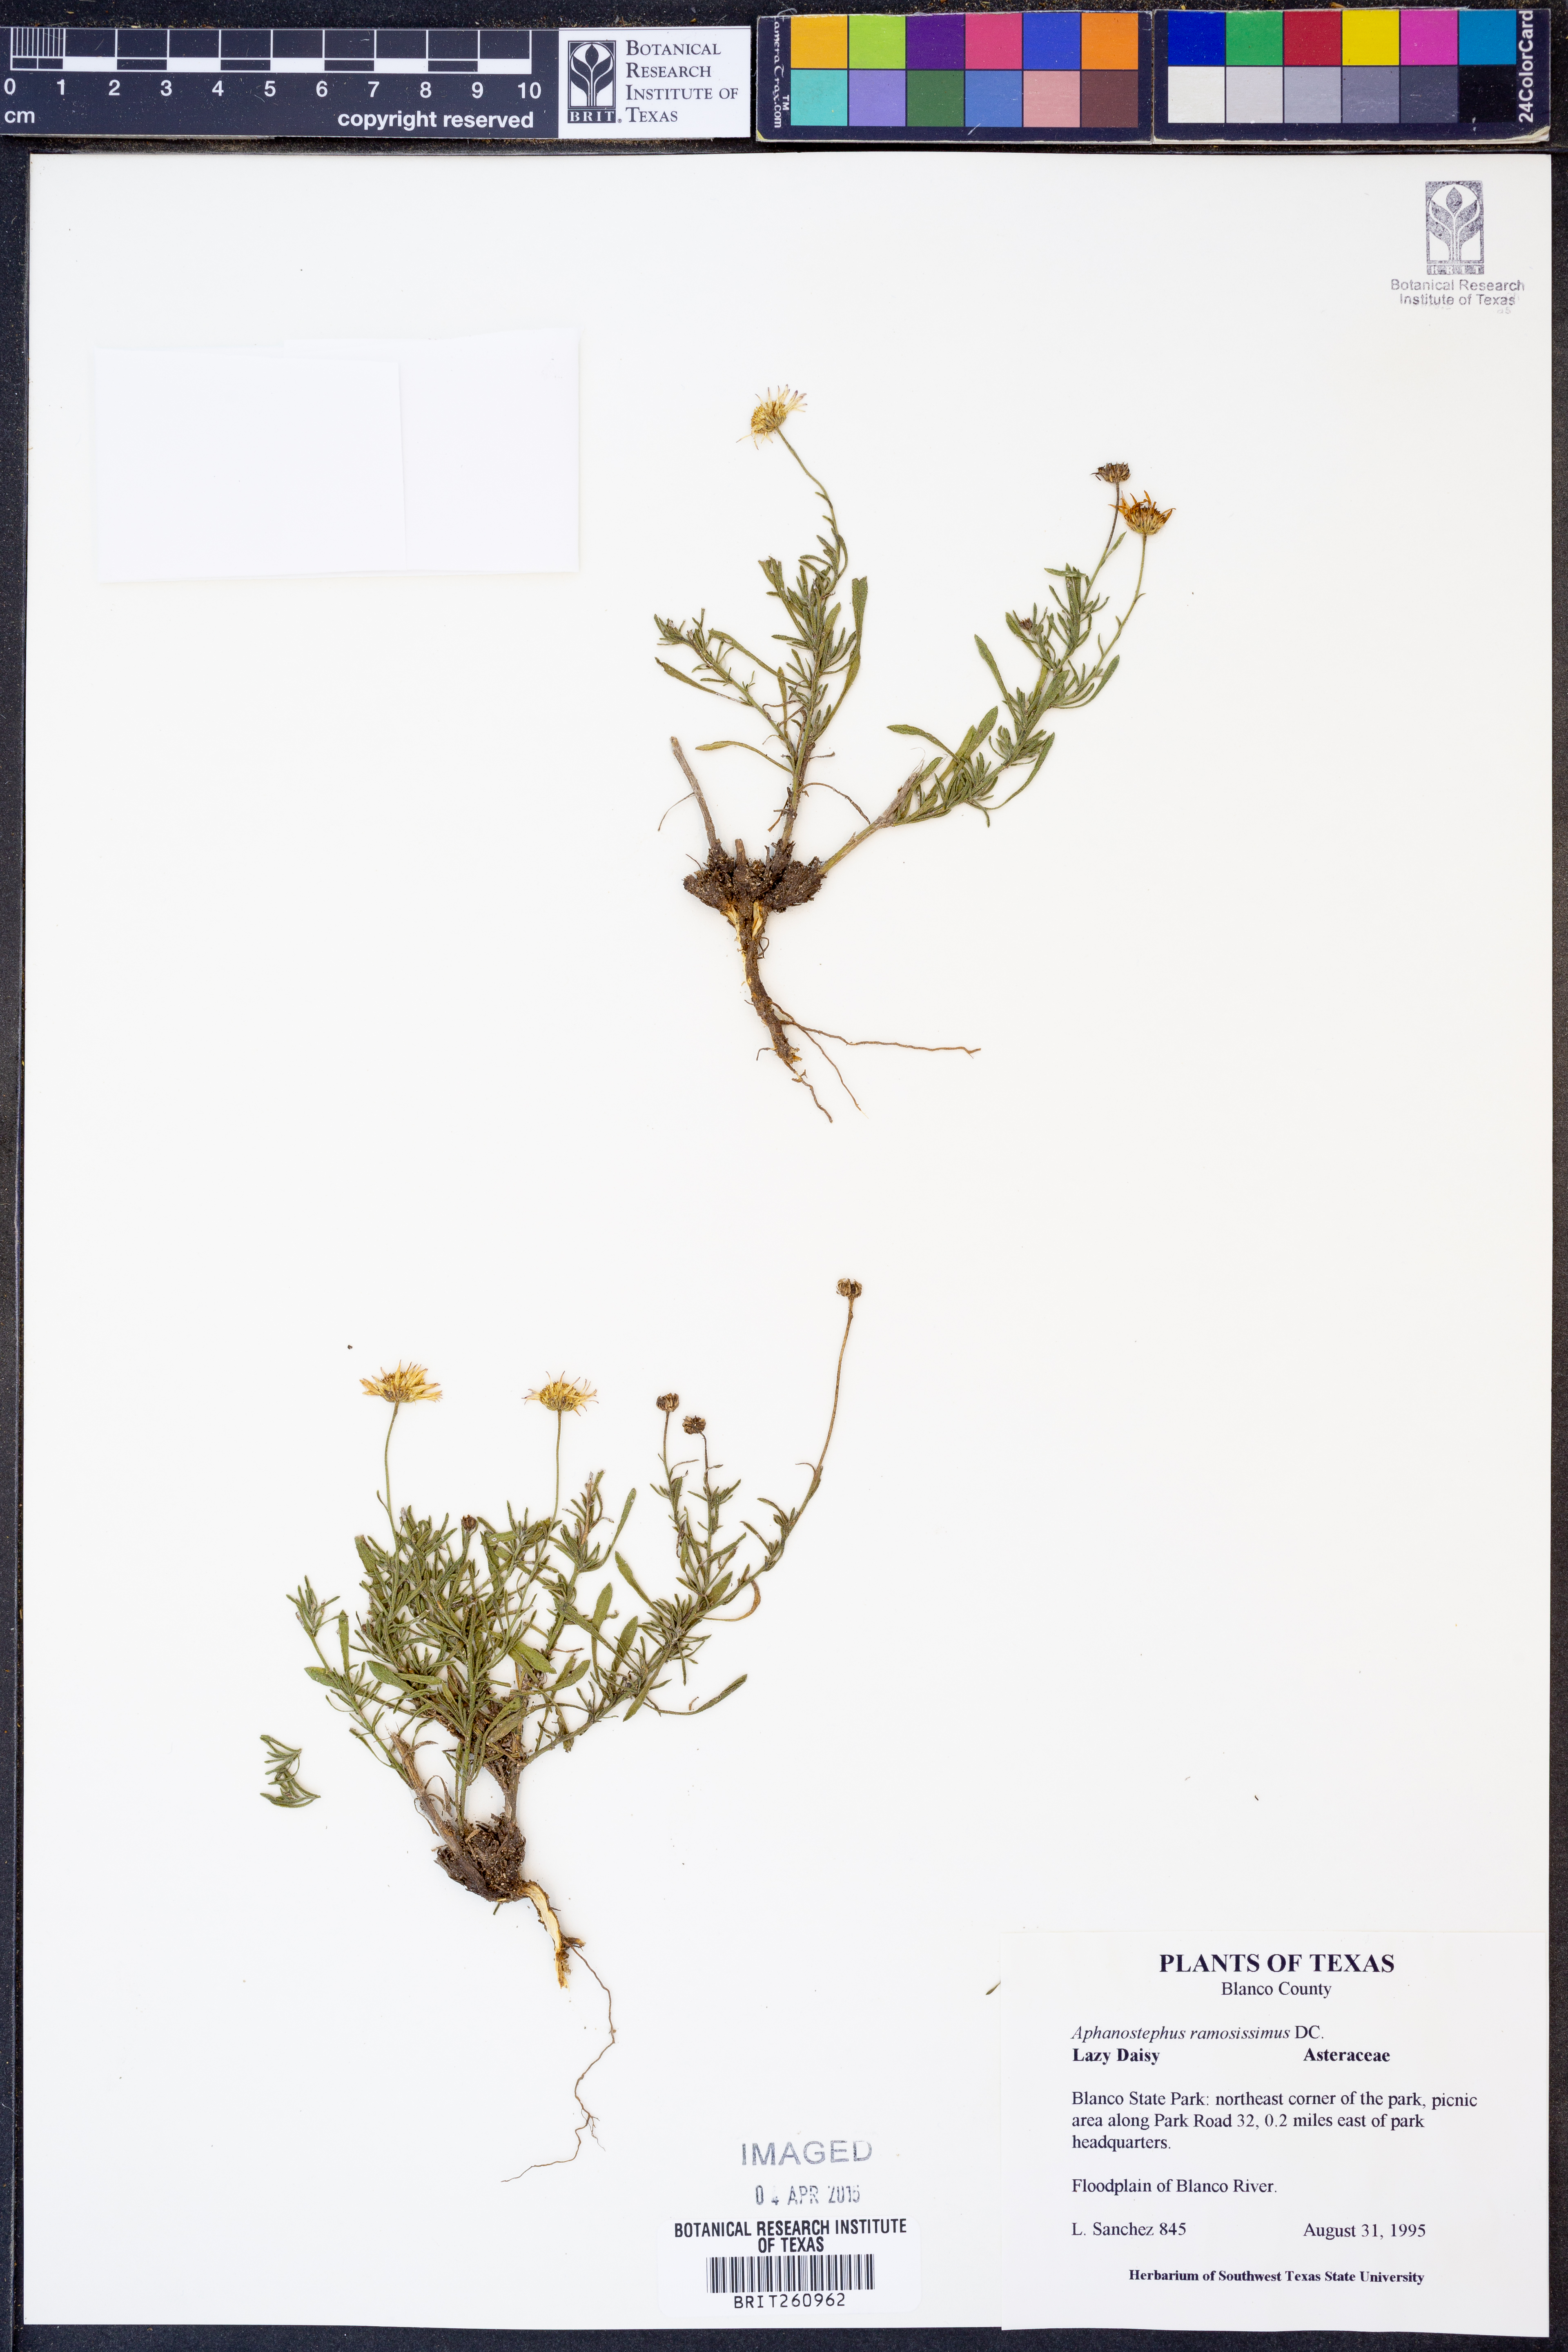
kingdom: Plantae
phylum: Tracheophyta
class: Magnoliopsida
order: Asterales
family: Asteraceae
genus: Aphanostephus
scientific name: Aphanostephus ramosissimus
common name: Plains lazy daisy
